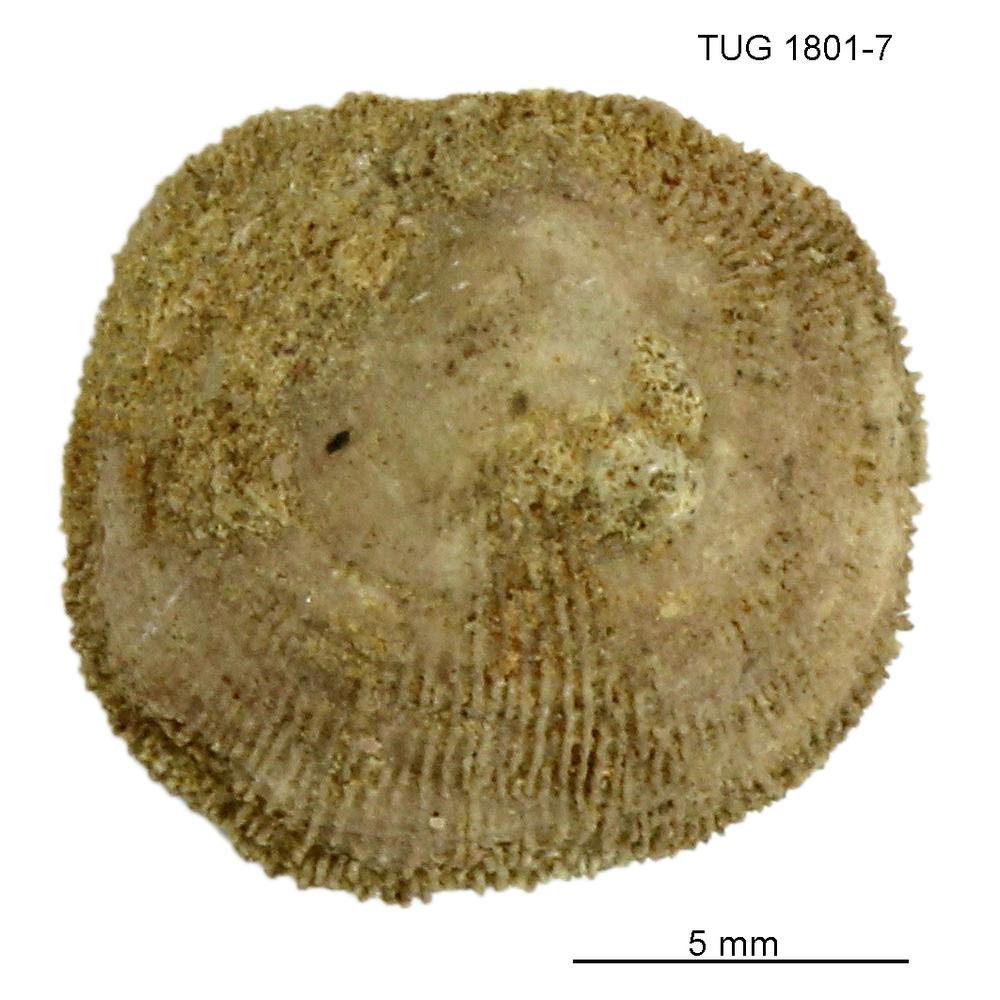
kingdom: Animalia
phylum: Brachiopoda
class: Craniata
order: Craniida
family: Craniidae
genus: Philhedra
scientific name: Philhedra
